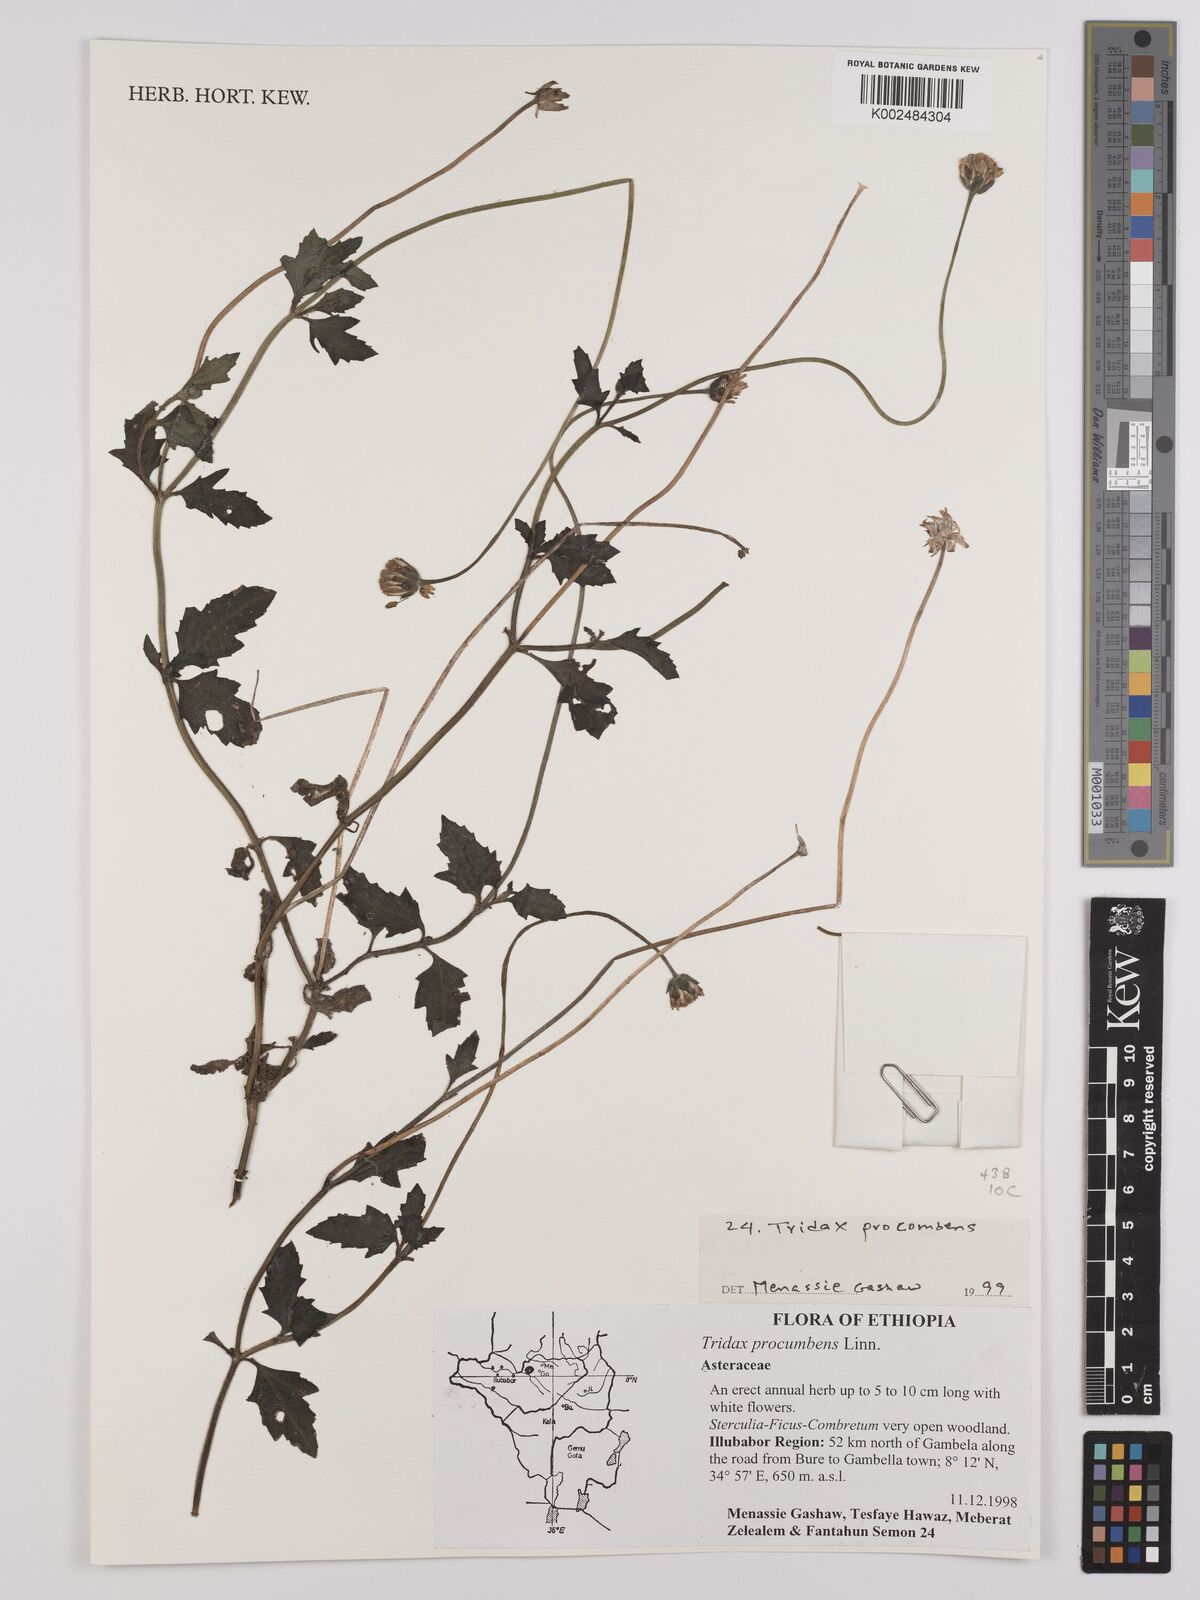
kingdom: Plantae
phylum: Tracheophyta
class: Magnoliopsida
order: Asterales
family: Asteraceae
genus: Tridax
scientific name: Tridax procumbens
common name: Coatbuttons
